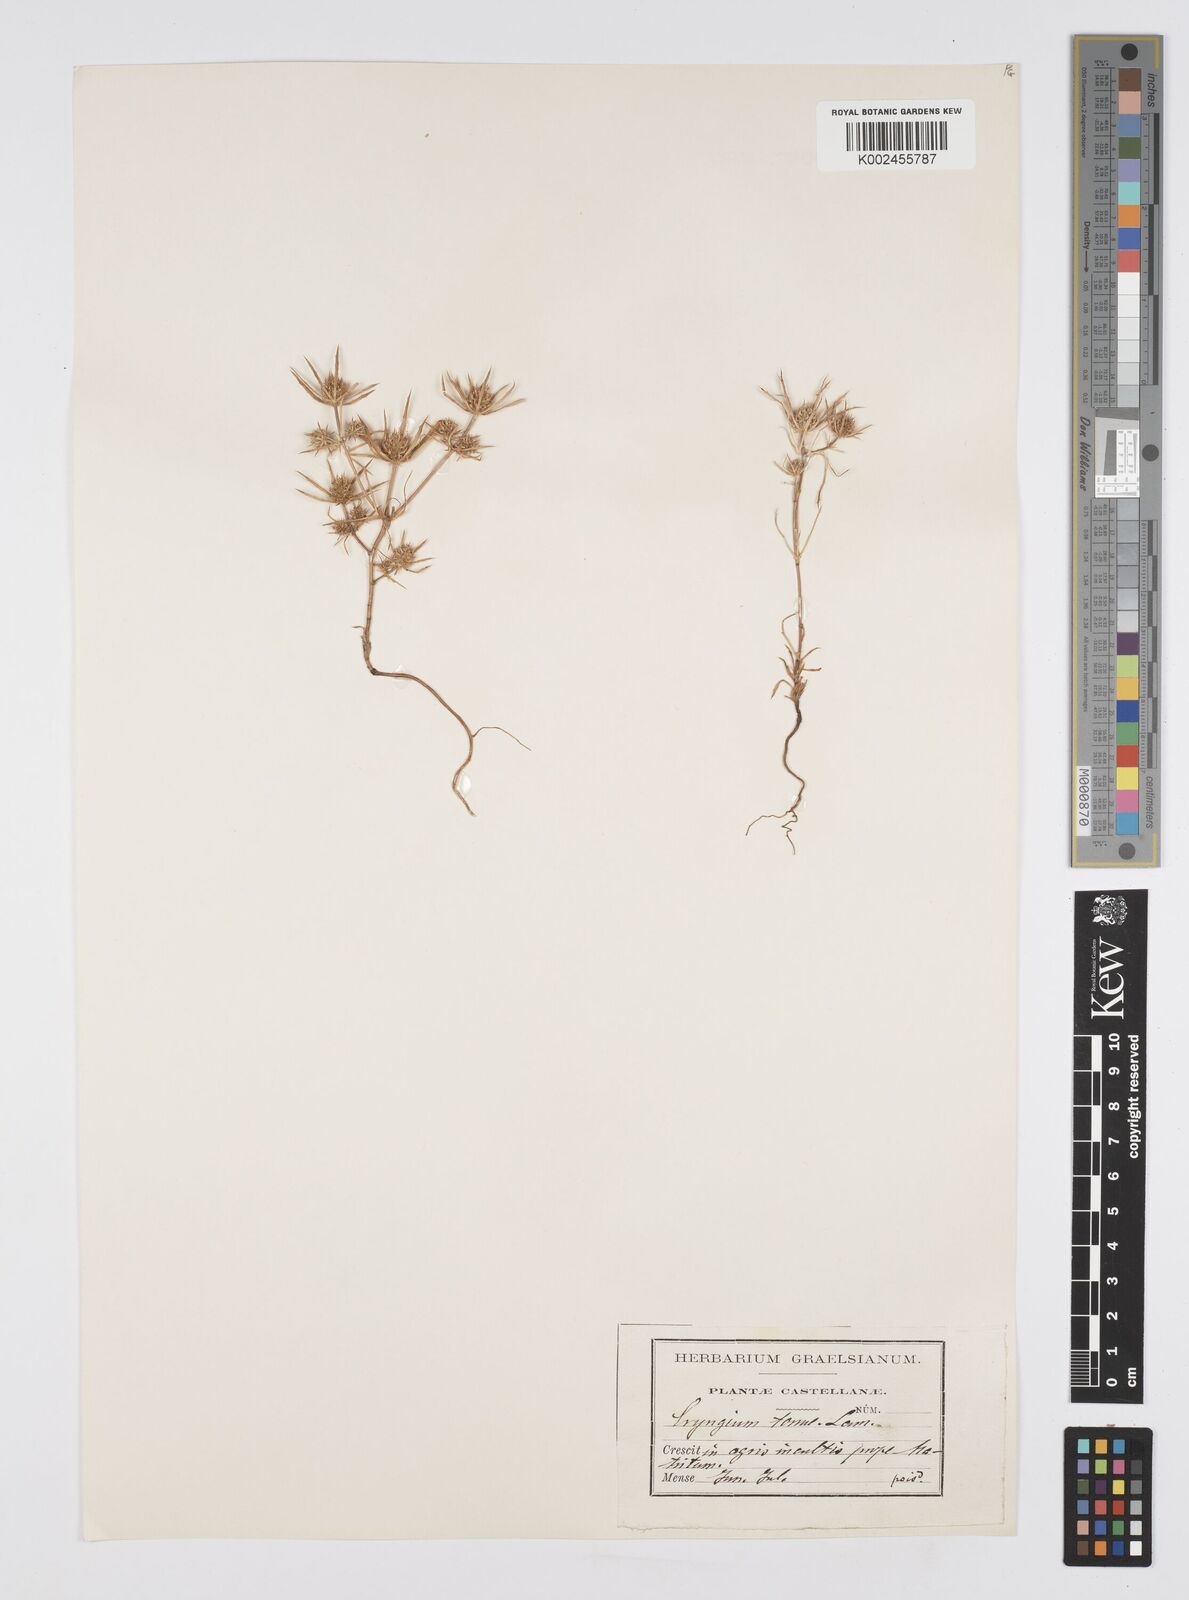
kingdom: Plantae
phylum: Tracheophyta
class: Magnoliopsida
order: Apiales
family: Apiaceae
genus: Eryngium
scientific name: Eryngium
